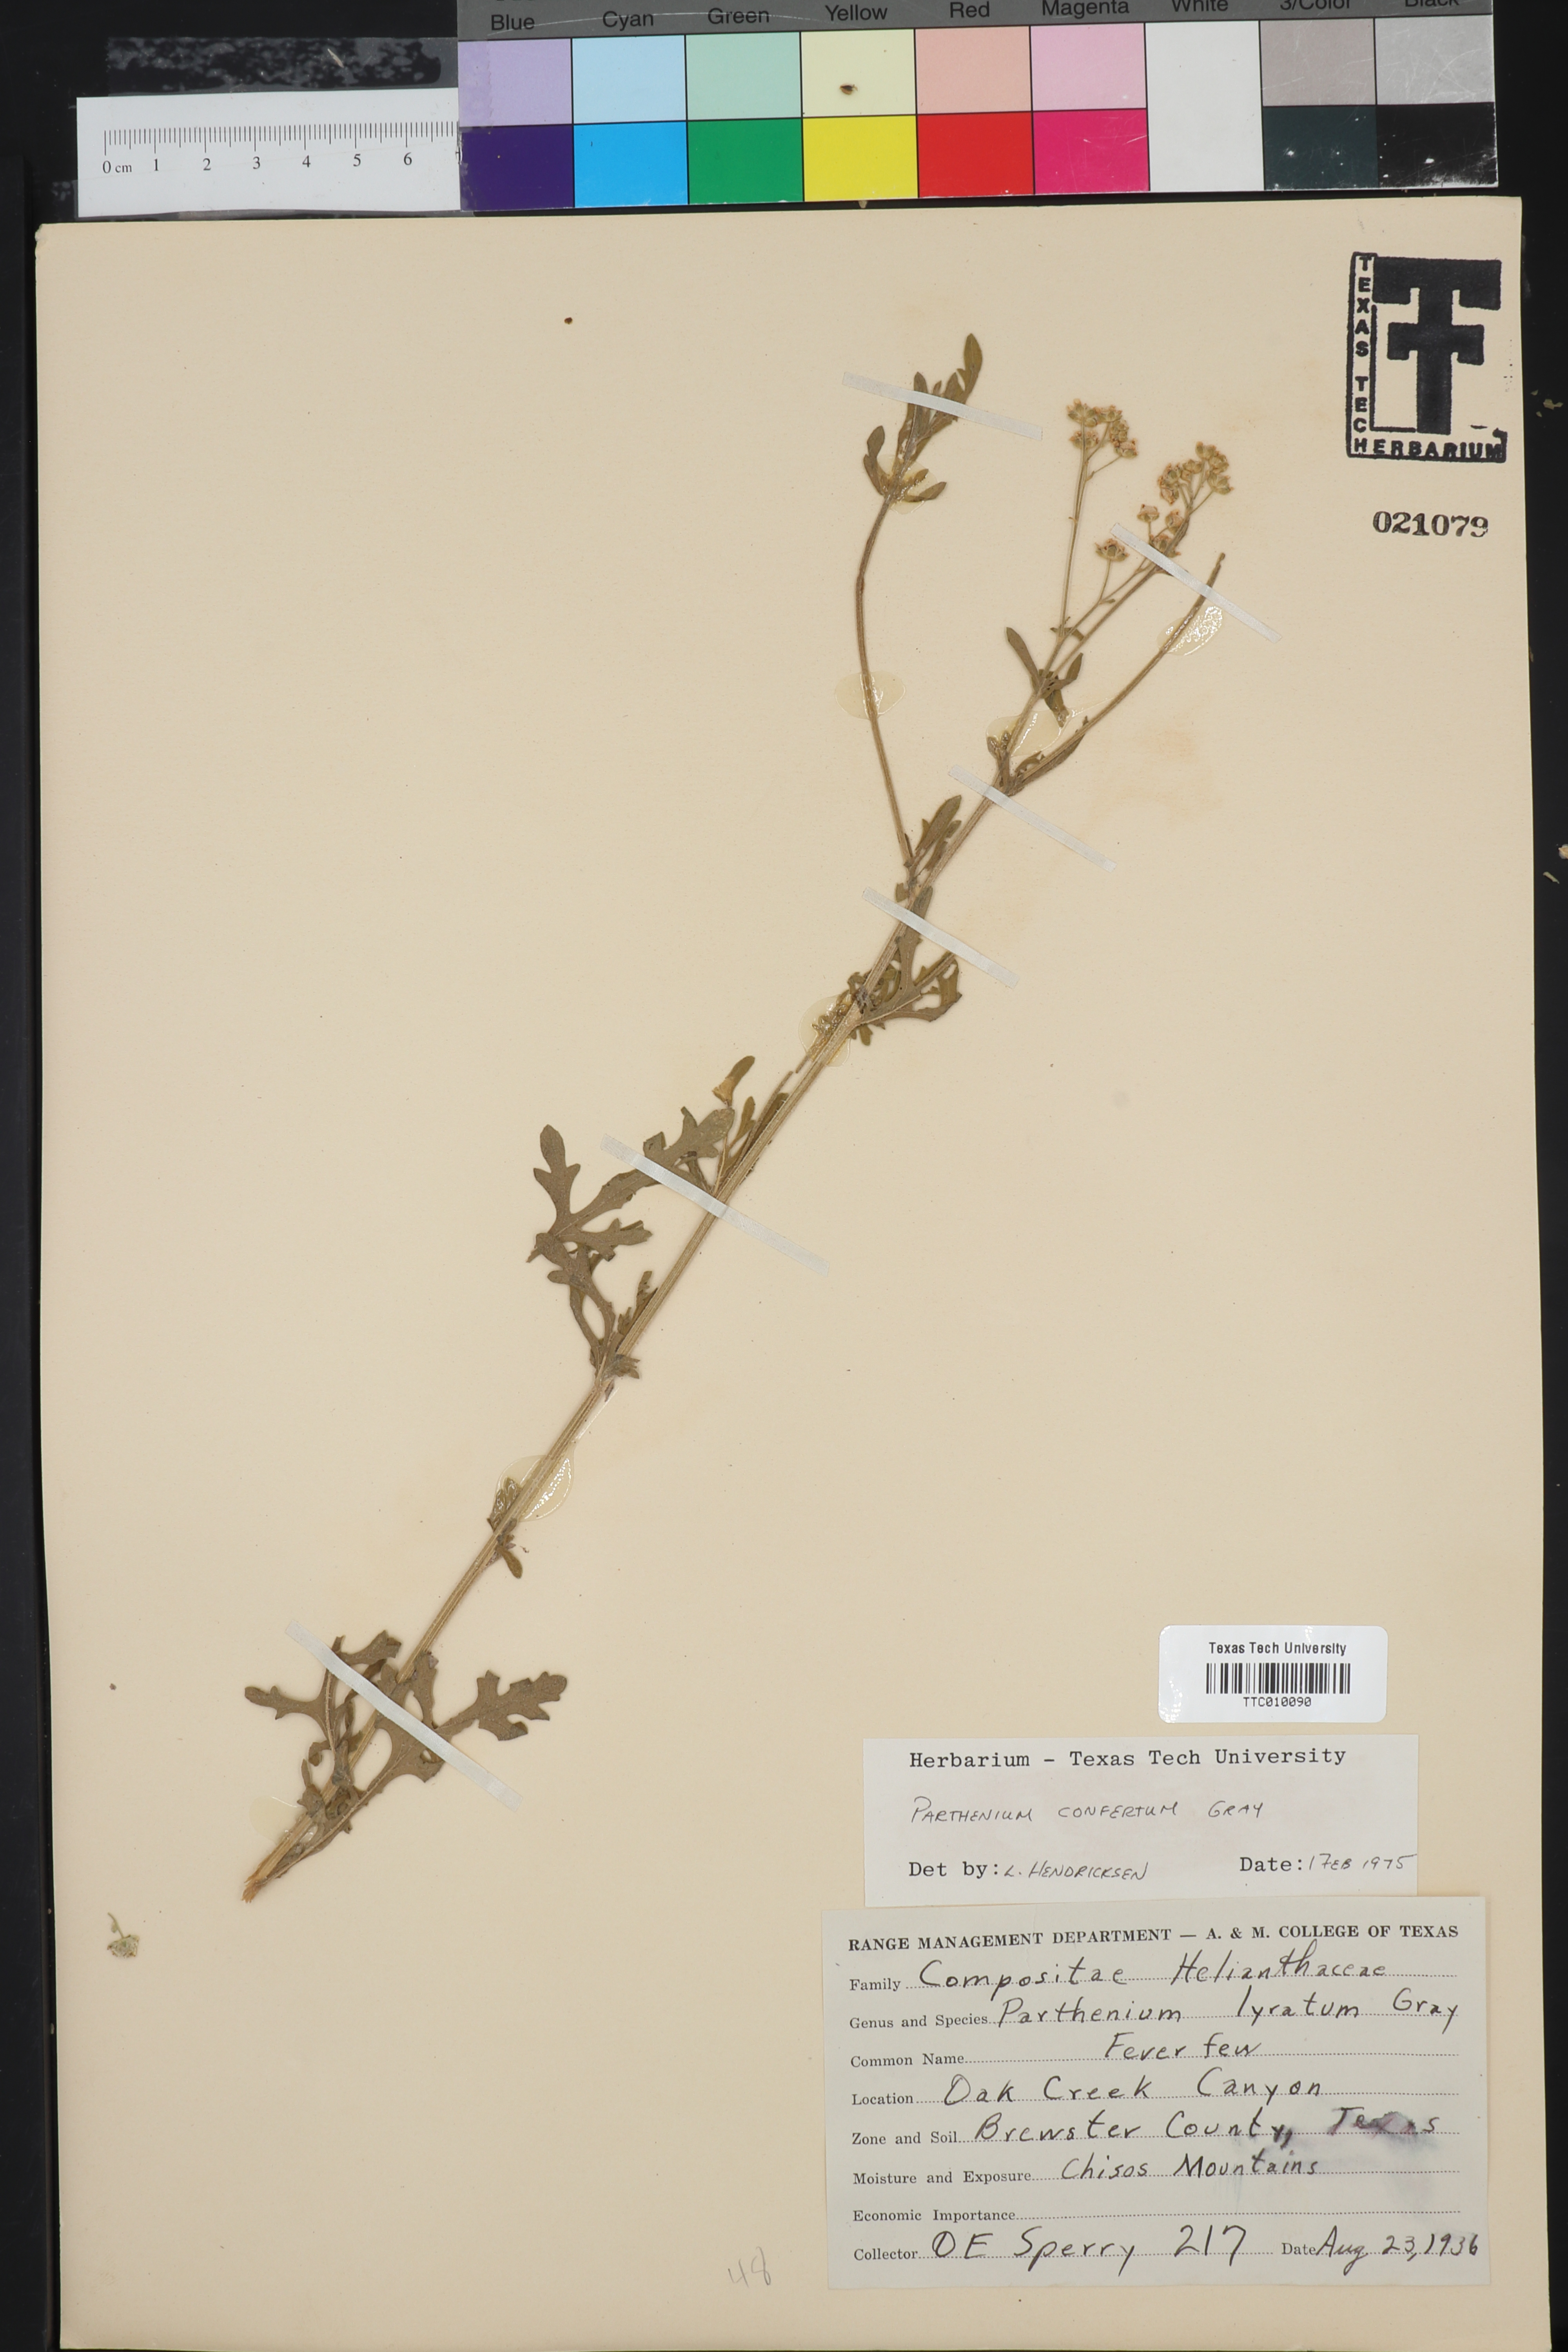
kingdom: Plantae
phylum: Tracheophyta
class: Magnoliopsida
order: Asterales
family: Asteraceae
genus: Parthenium
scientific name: Parthenium confertum
